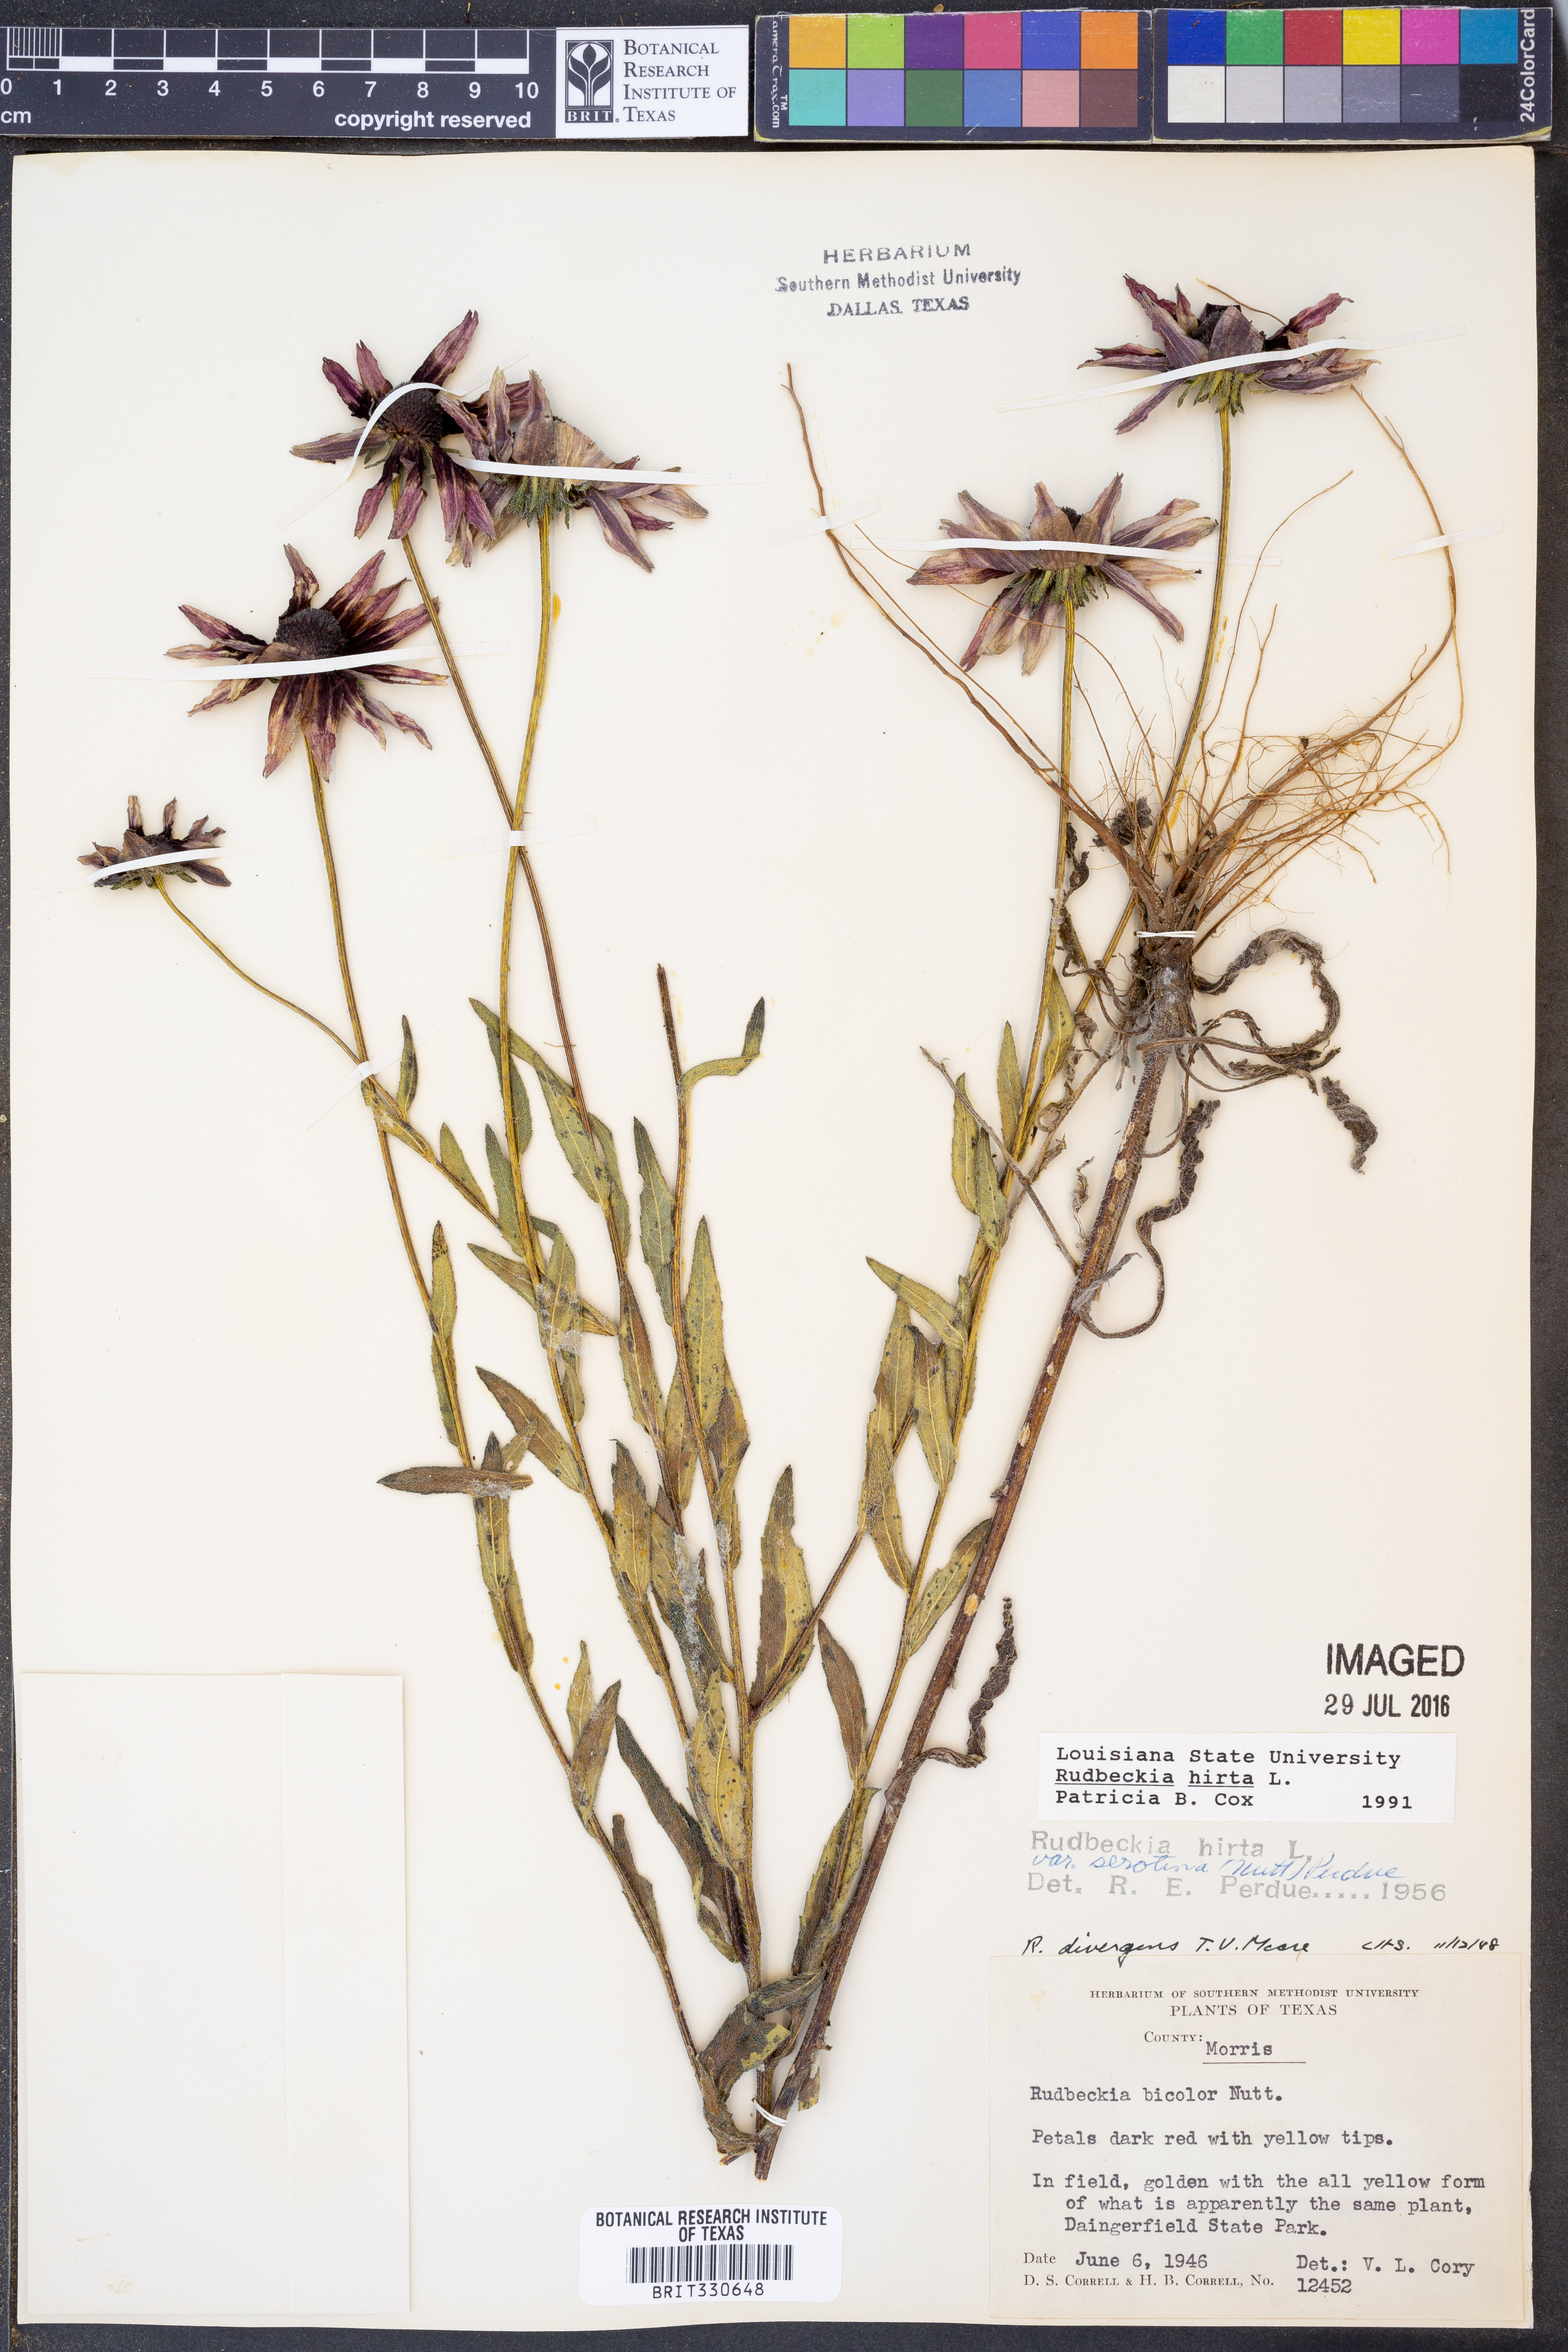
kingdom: Plantae
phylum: Tracheophyta
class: Magnoliopsida
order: Asterales
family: Asteraceae
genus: Rudbeckia
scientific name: Rudbeckia hirta
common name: Black-eyed-susan
